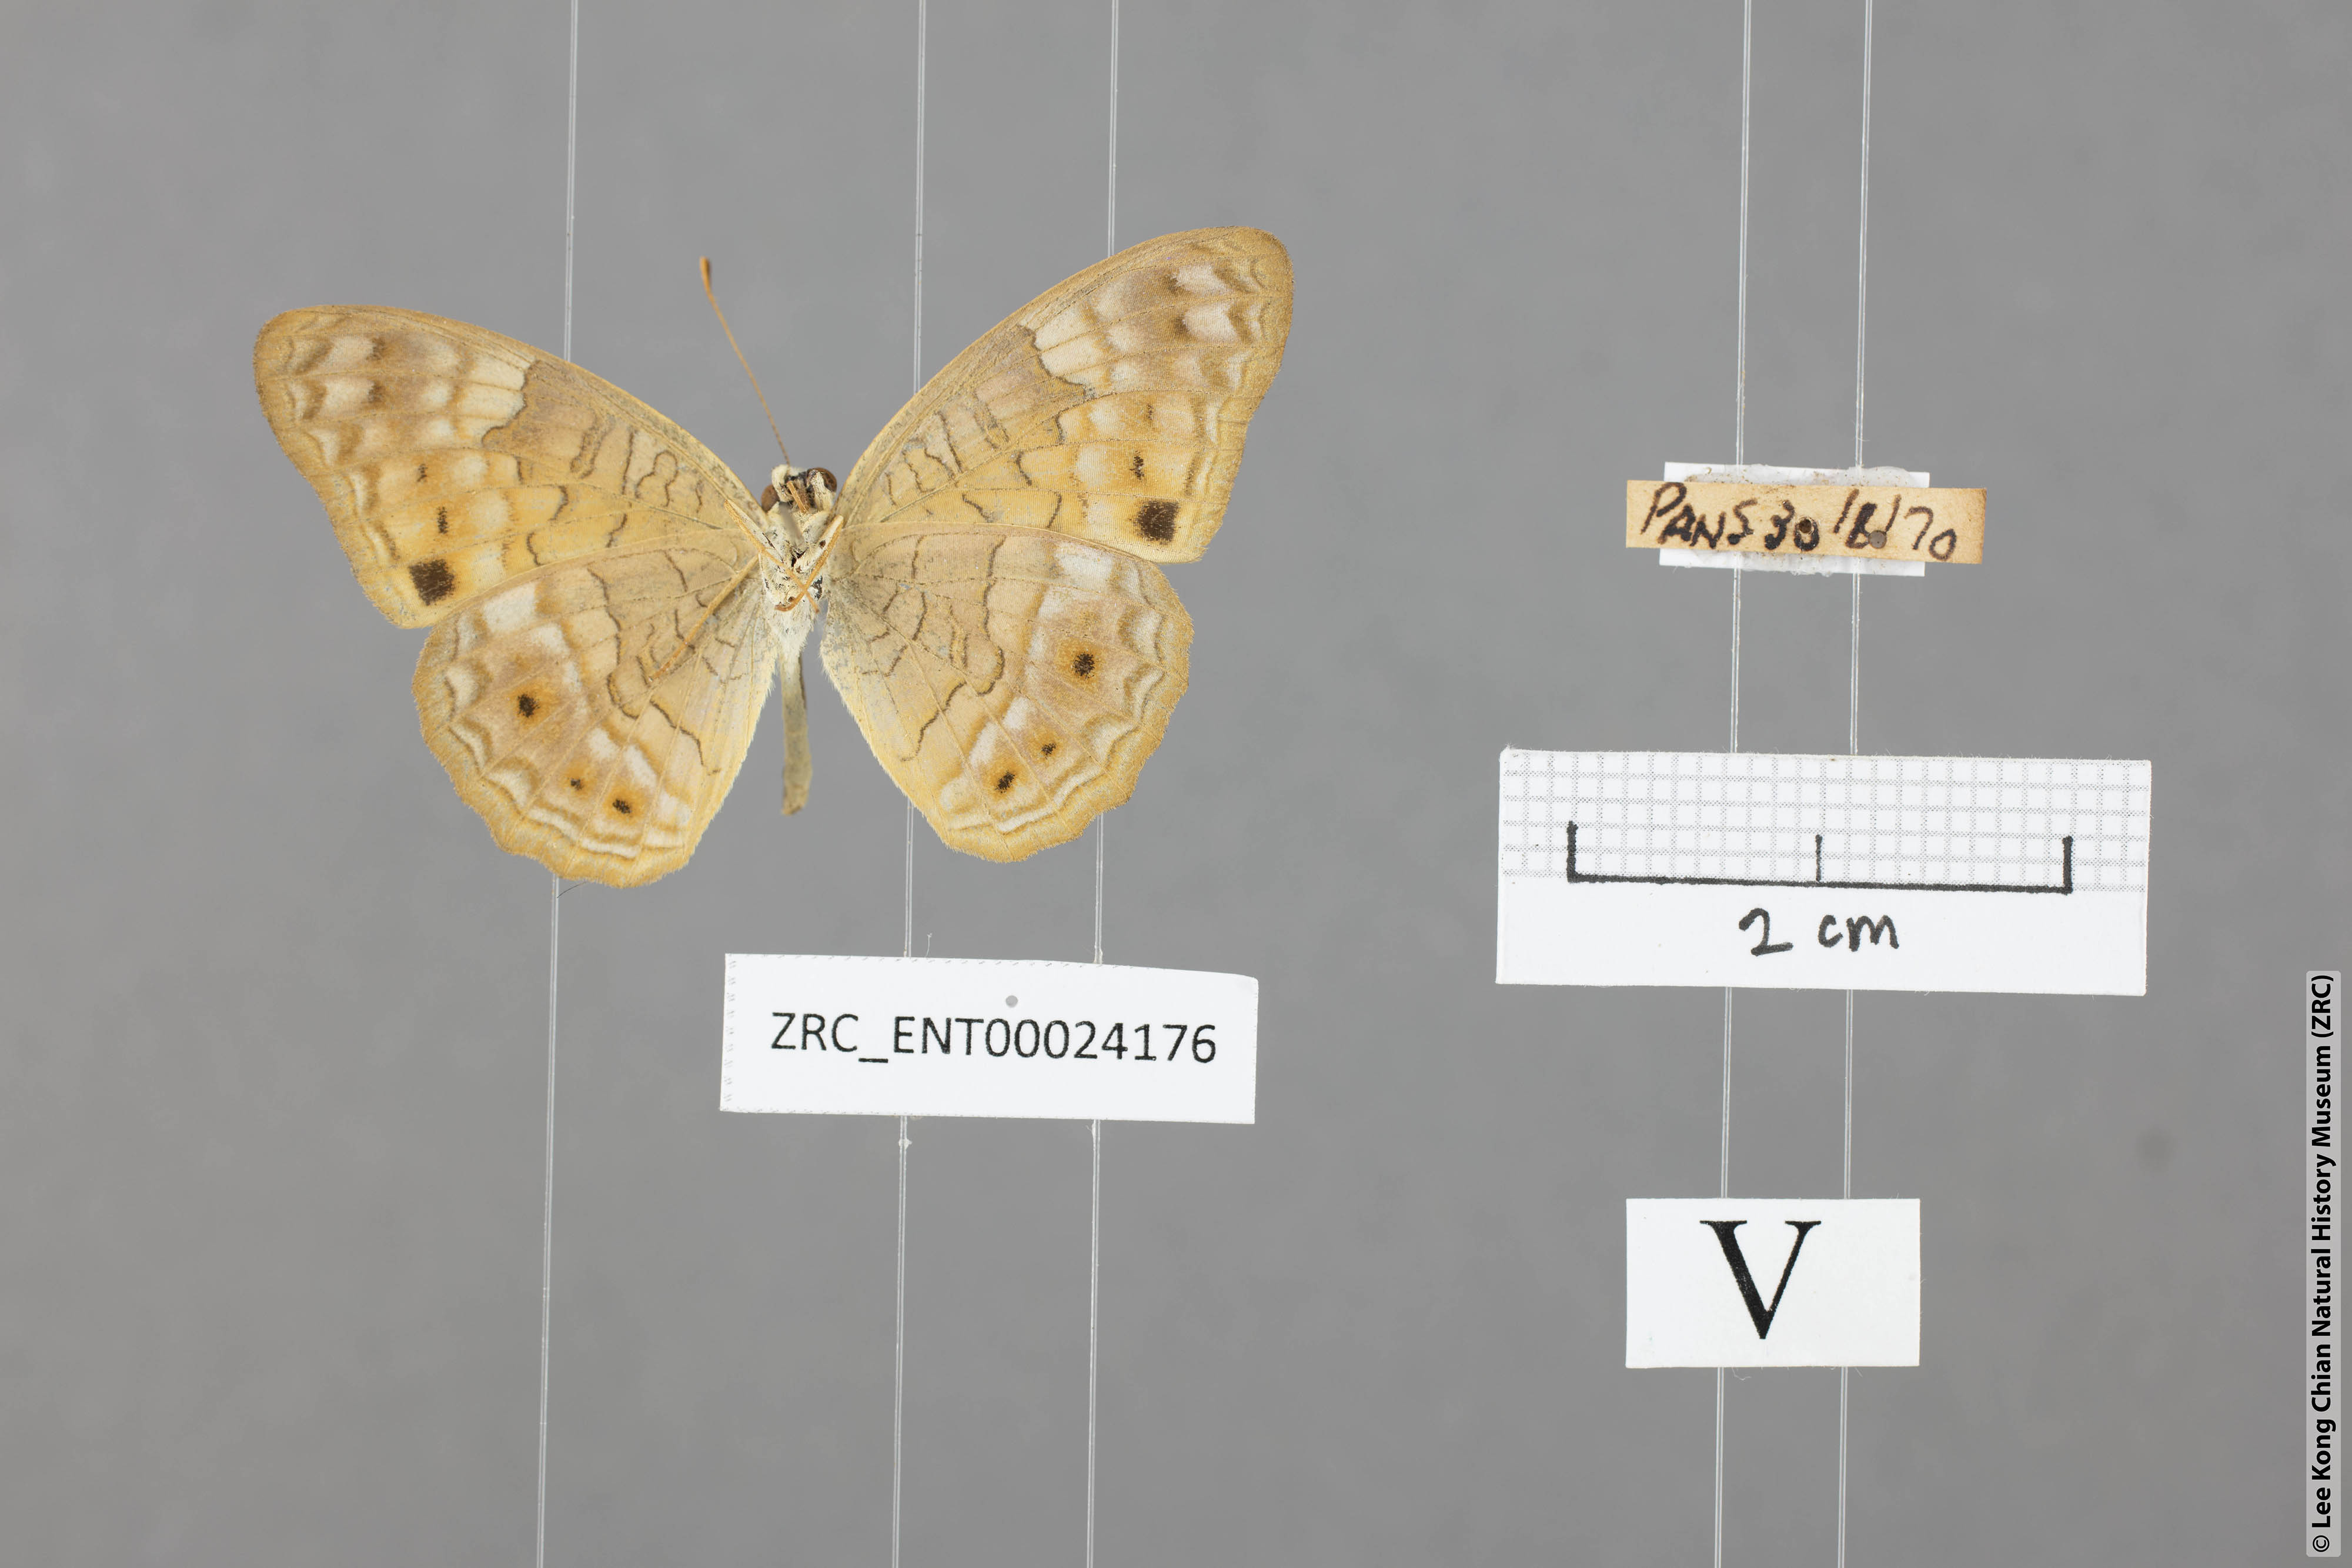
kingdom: Animalia
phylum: Arthropoda
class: Insecta
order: Lepidoptera
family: Nymphalidae
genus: Phalanta
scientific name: Phalanta alcippe
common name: Small leopard
